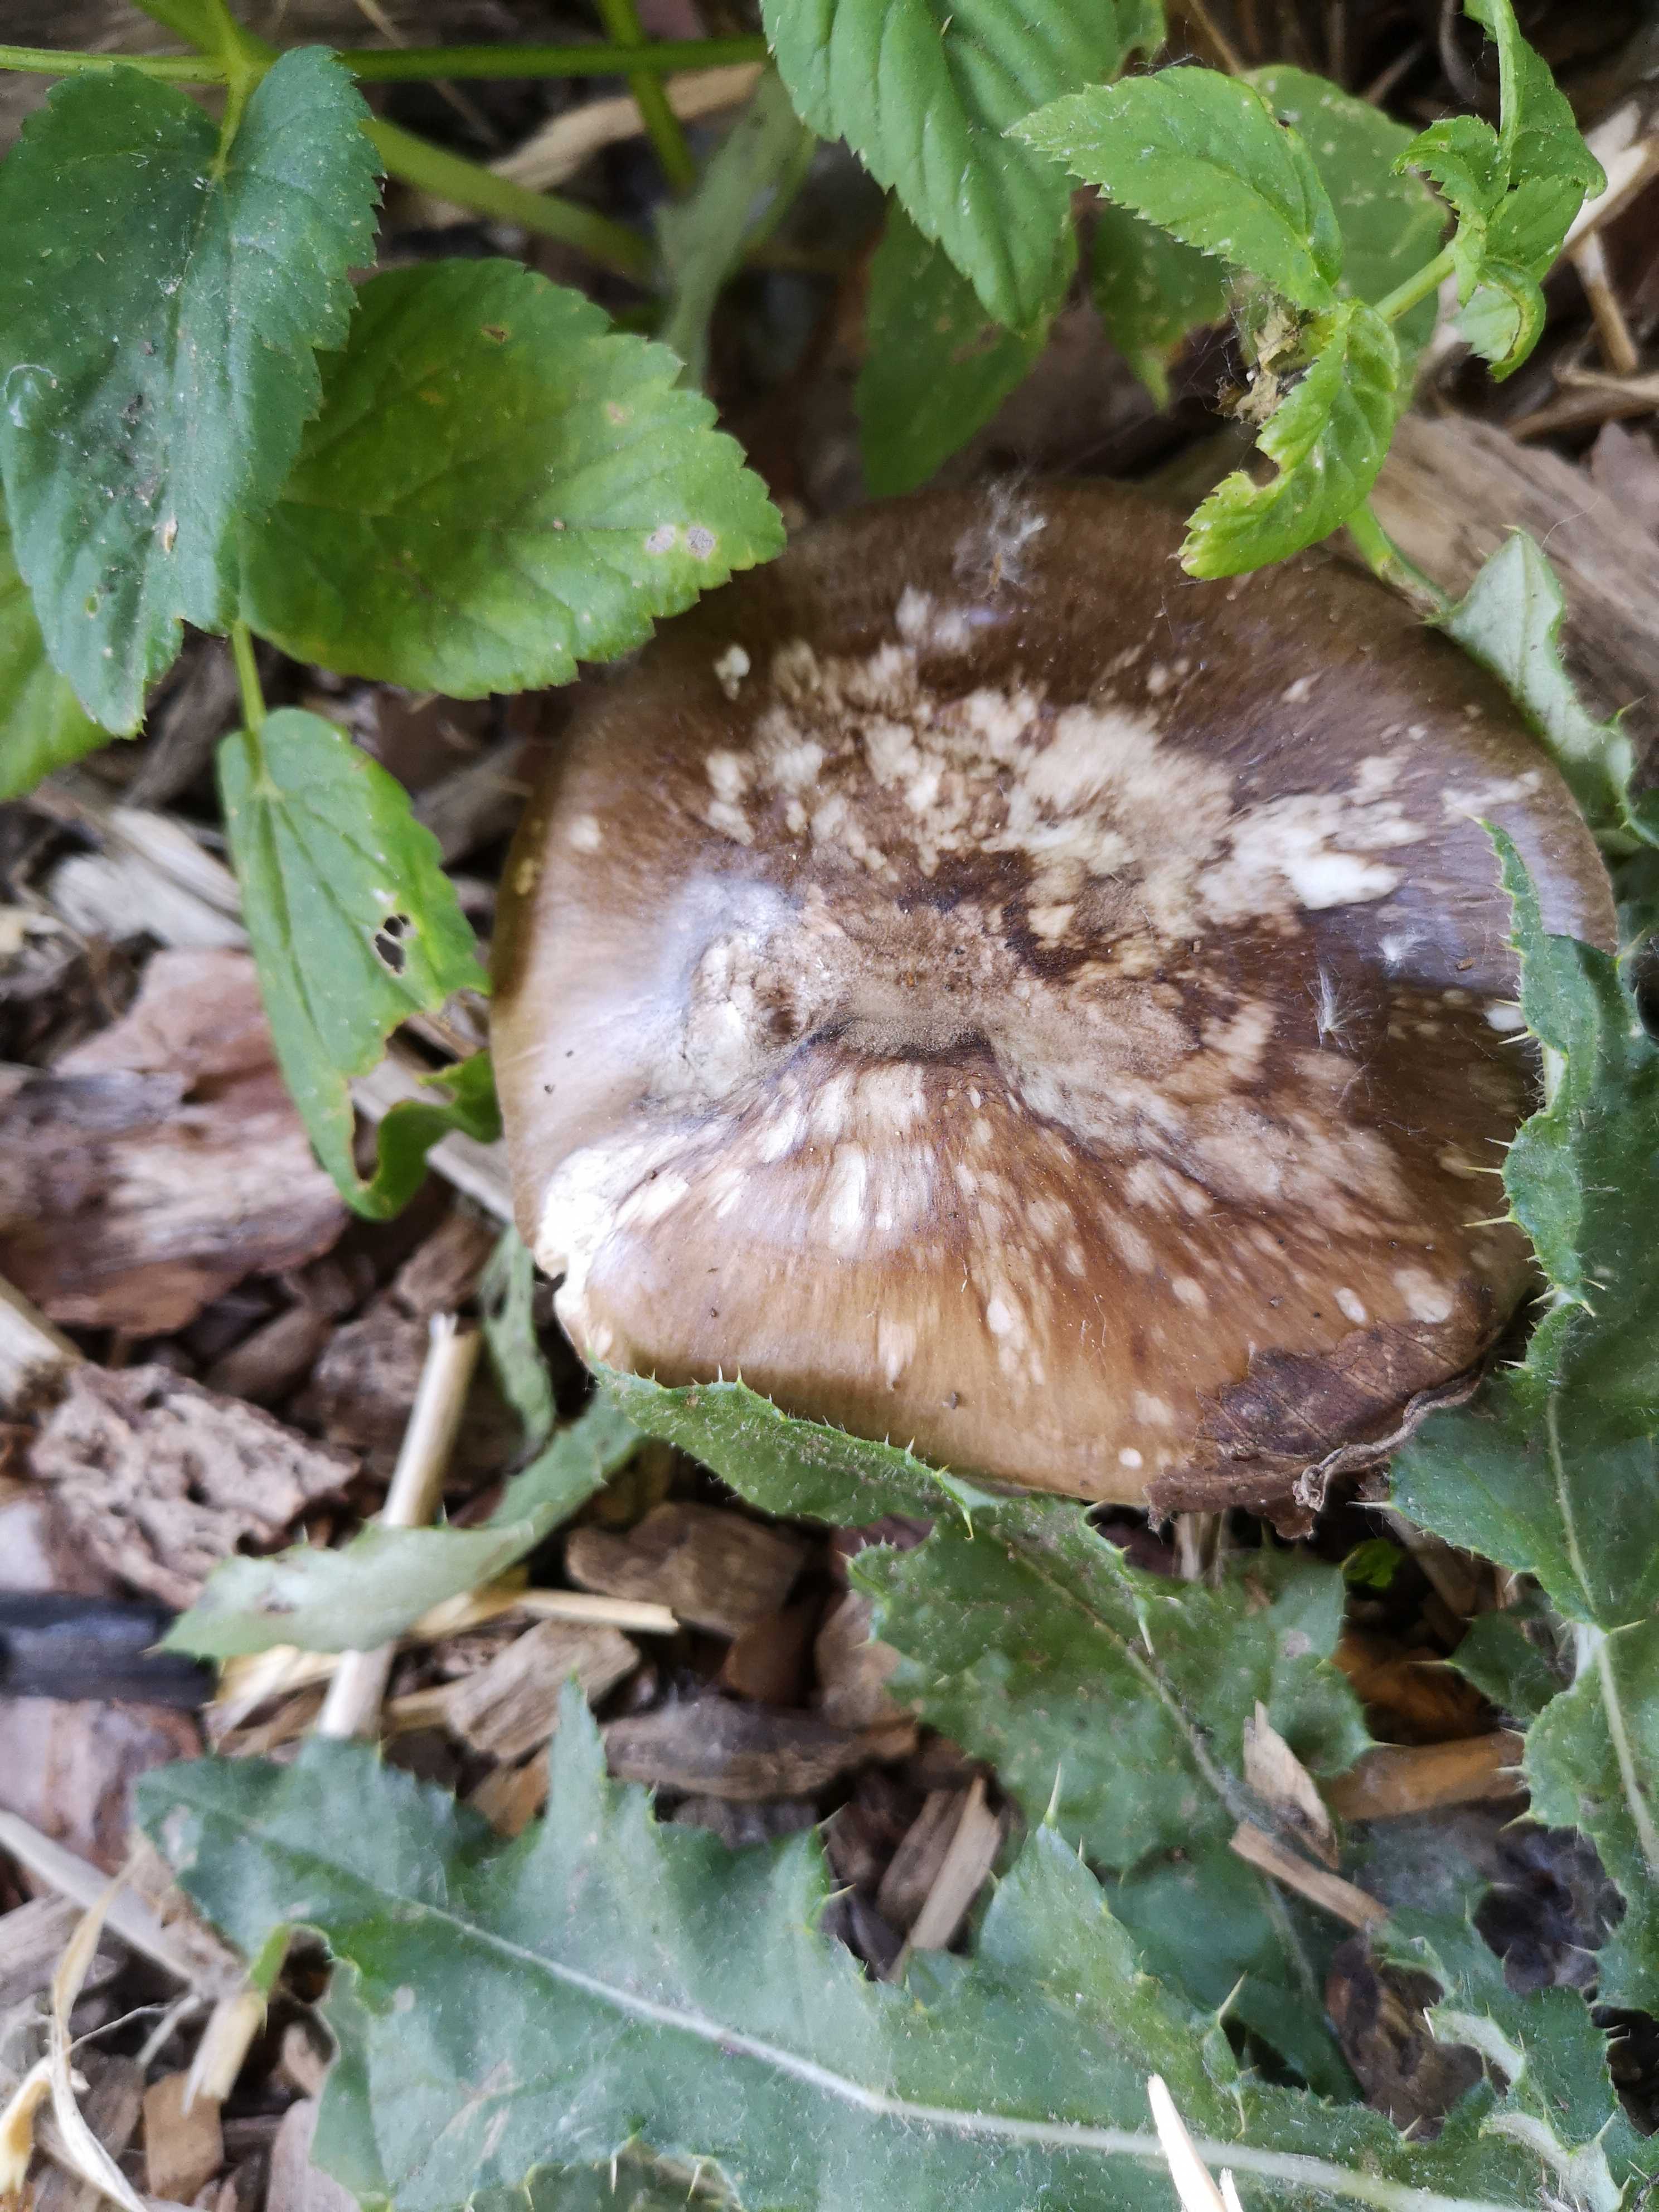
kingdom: Fungi
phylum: Basidiomycota
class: Agaricomycetes
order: Agaricales
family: Pluteaceae
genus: Pluteus
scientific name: Pluteus cervinus
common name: sodfarvet skærmhat
